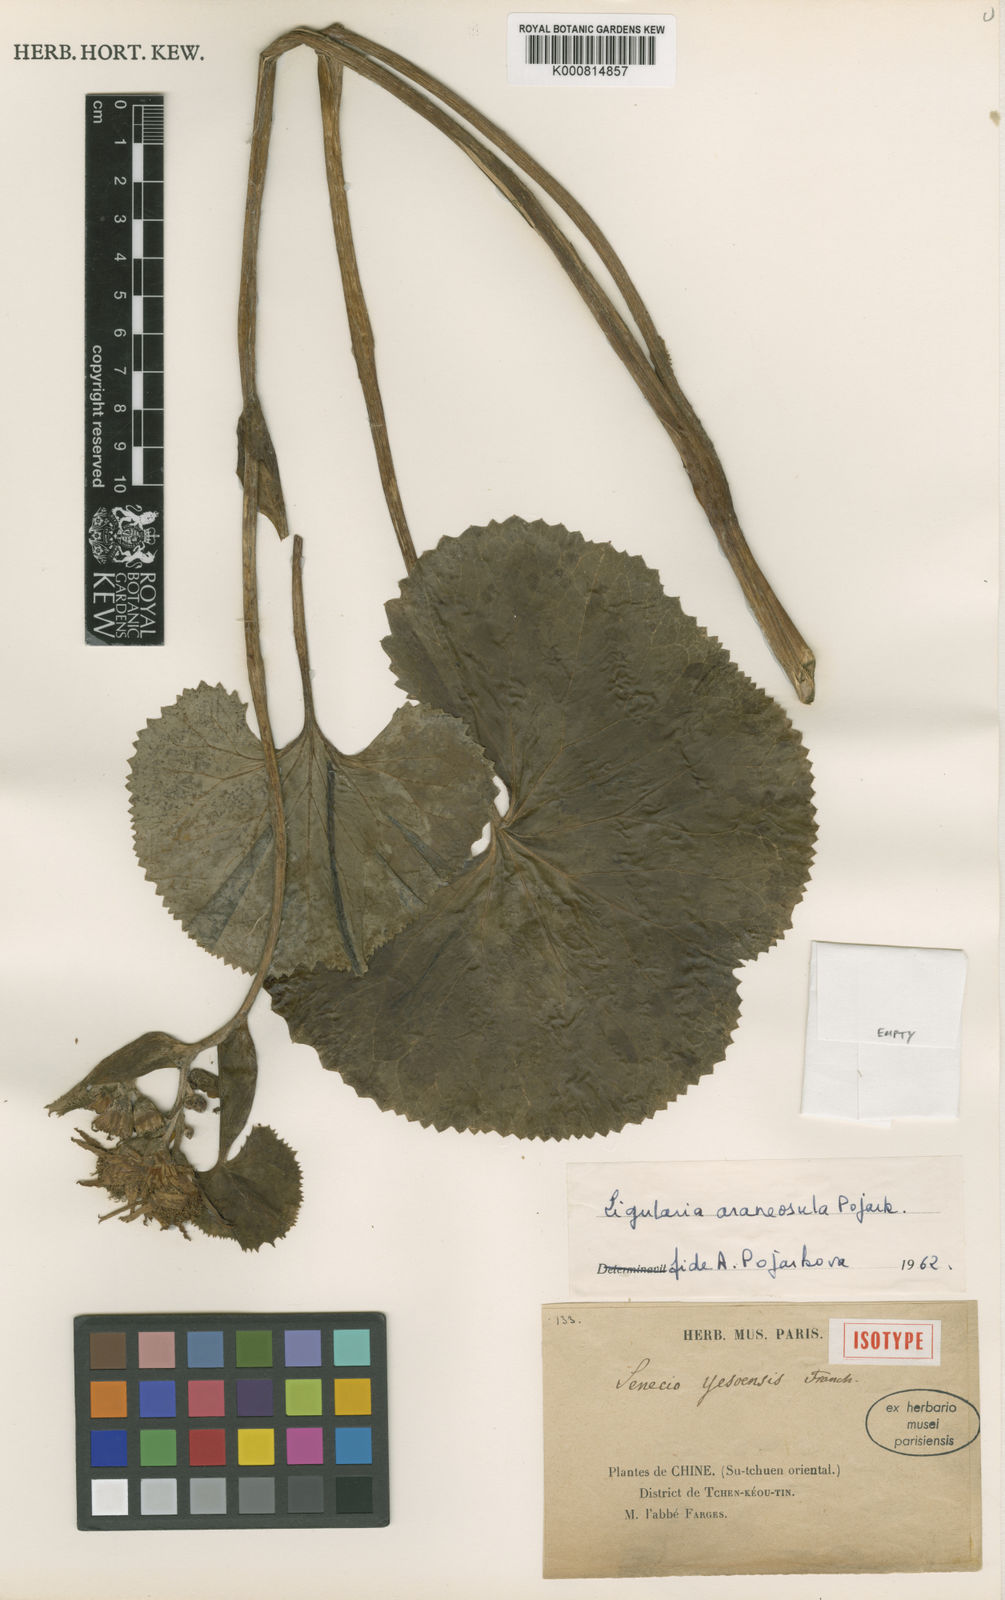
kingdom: Plantae
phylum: Tracheophyta
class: Magnoliopsida
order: Asterales
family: Asteraceae
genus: Ligularia
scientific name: Ligularia
